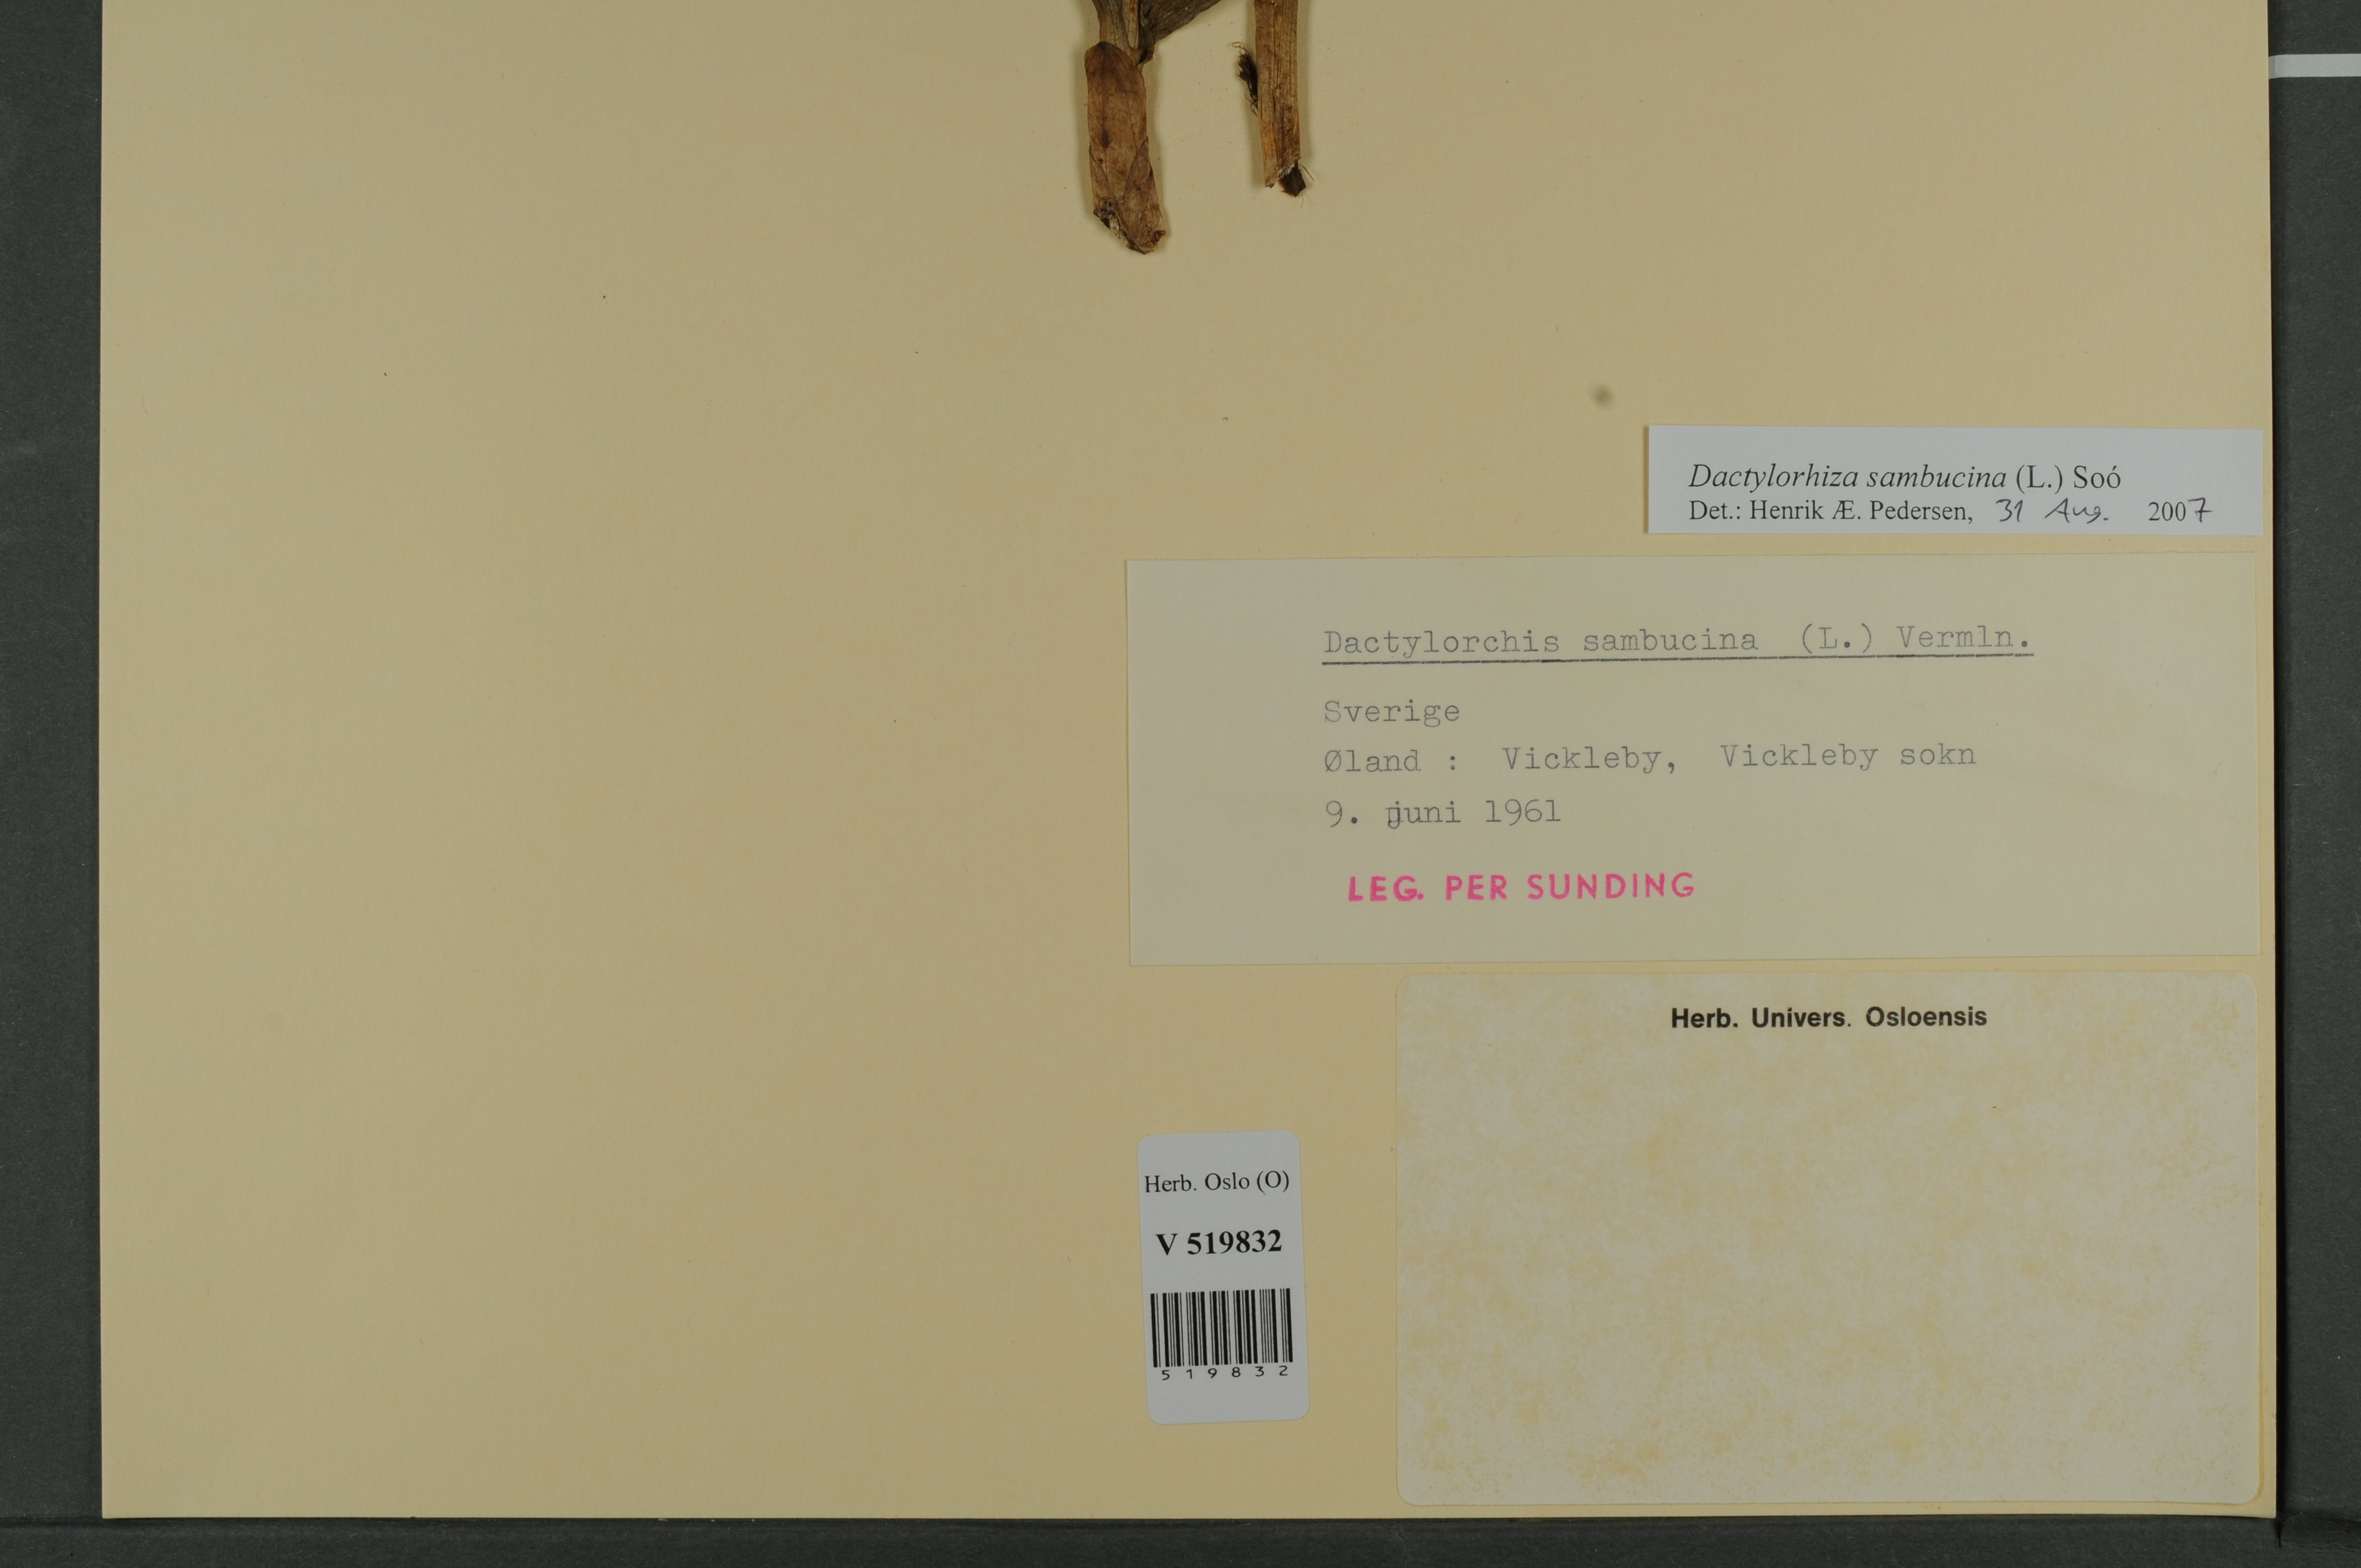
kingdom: Plantae
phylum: Tracheophyta
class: Liliopsida
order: Asparagales
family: Orchidaceae
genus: Dactylorhiza
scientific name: Dactylorhiza sambucina
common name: Elder-flowered orchid
